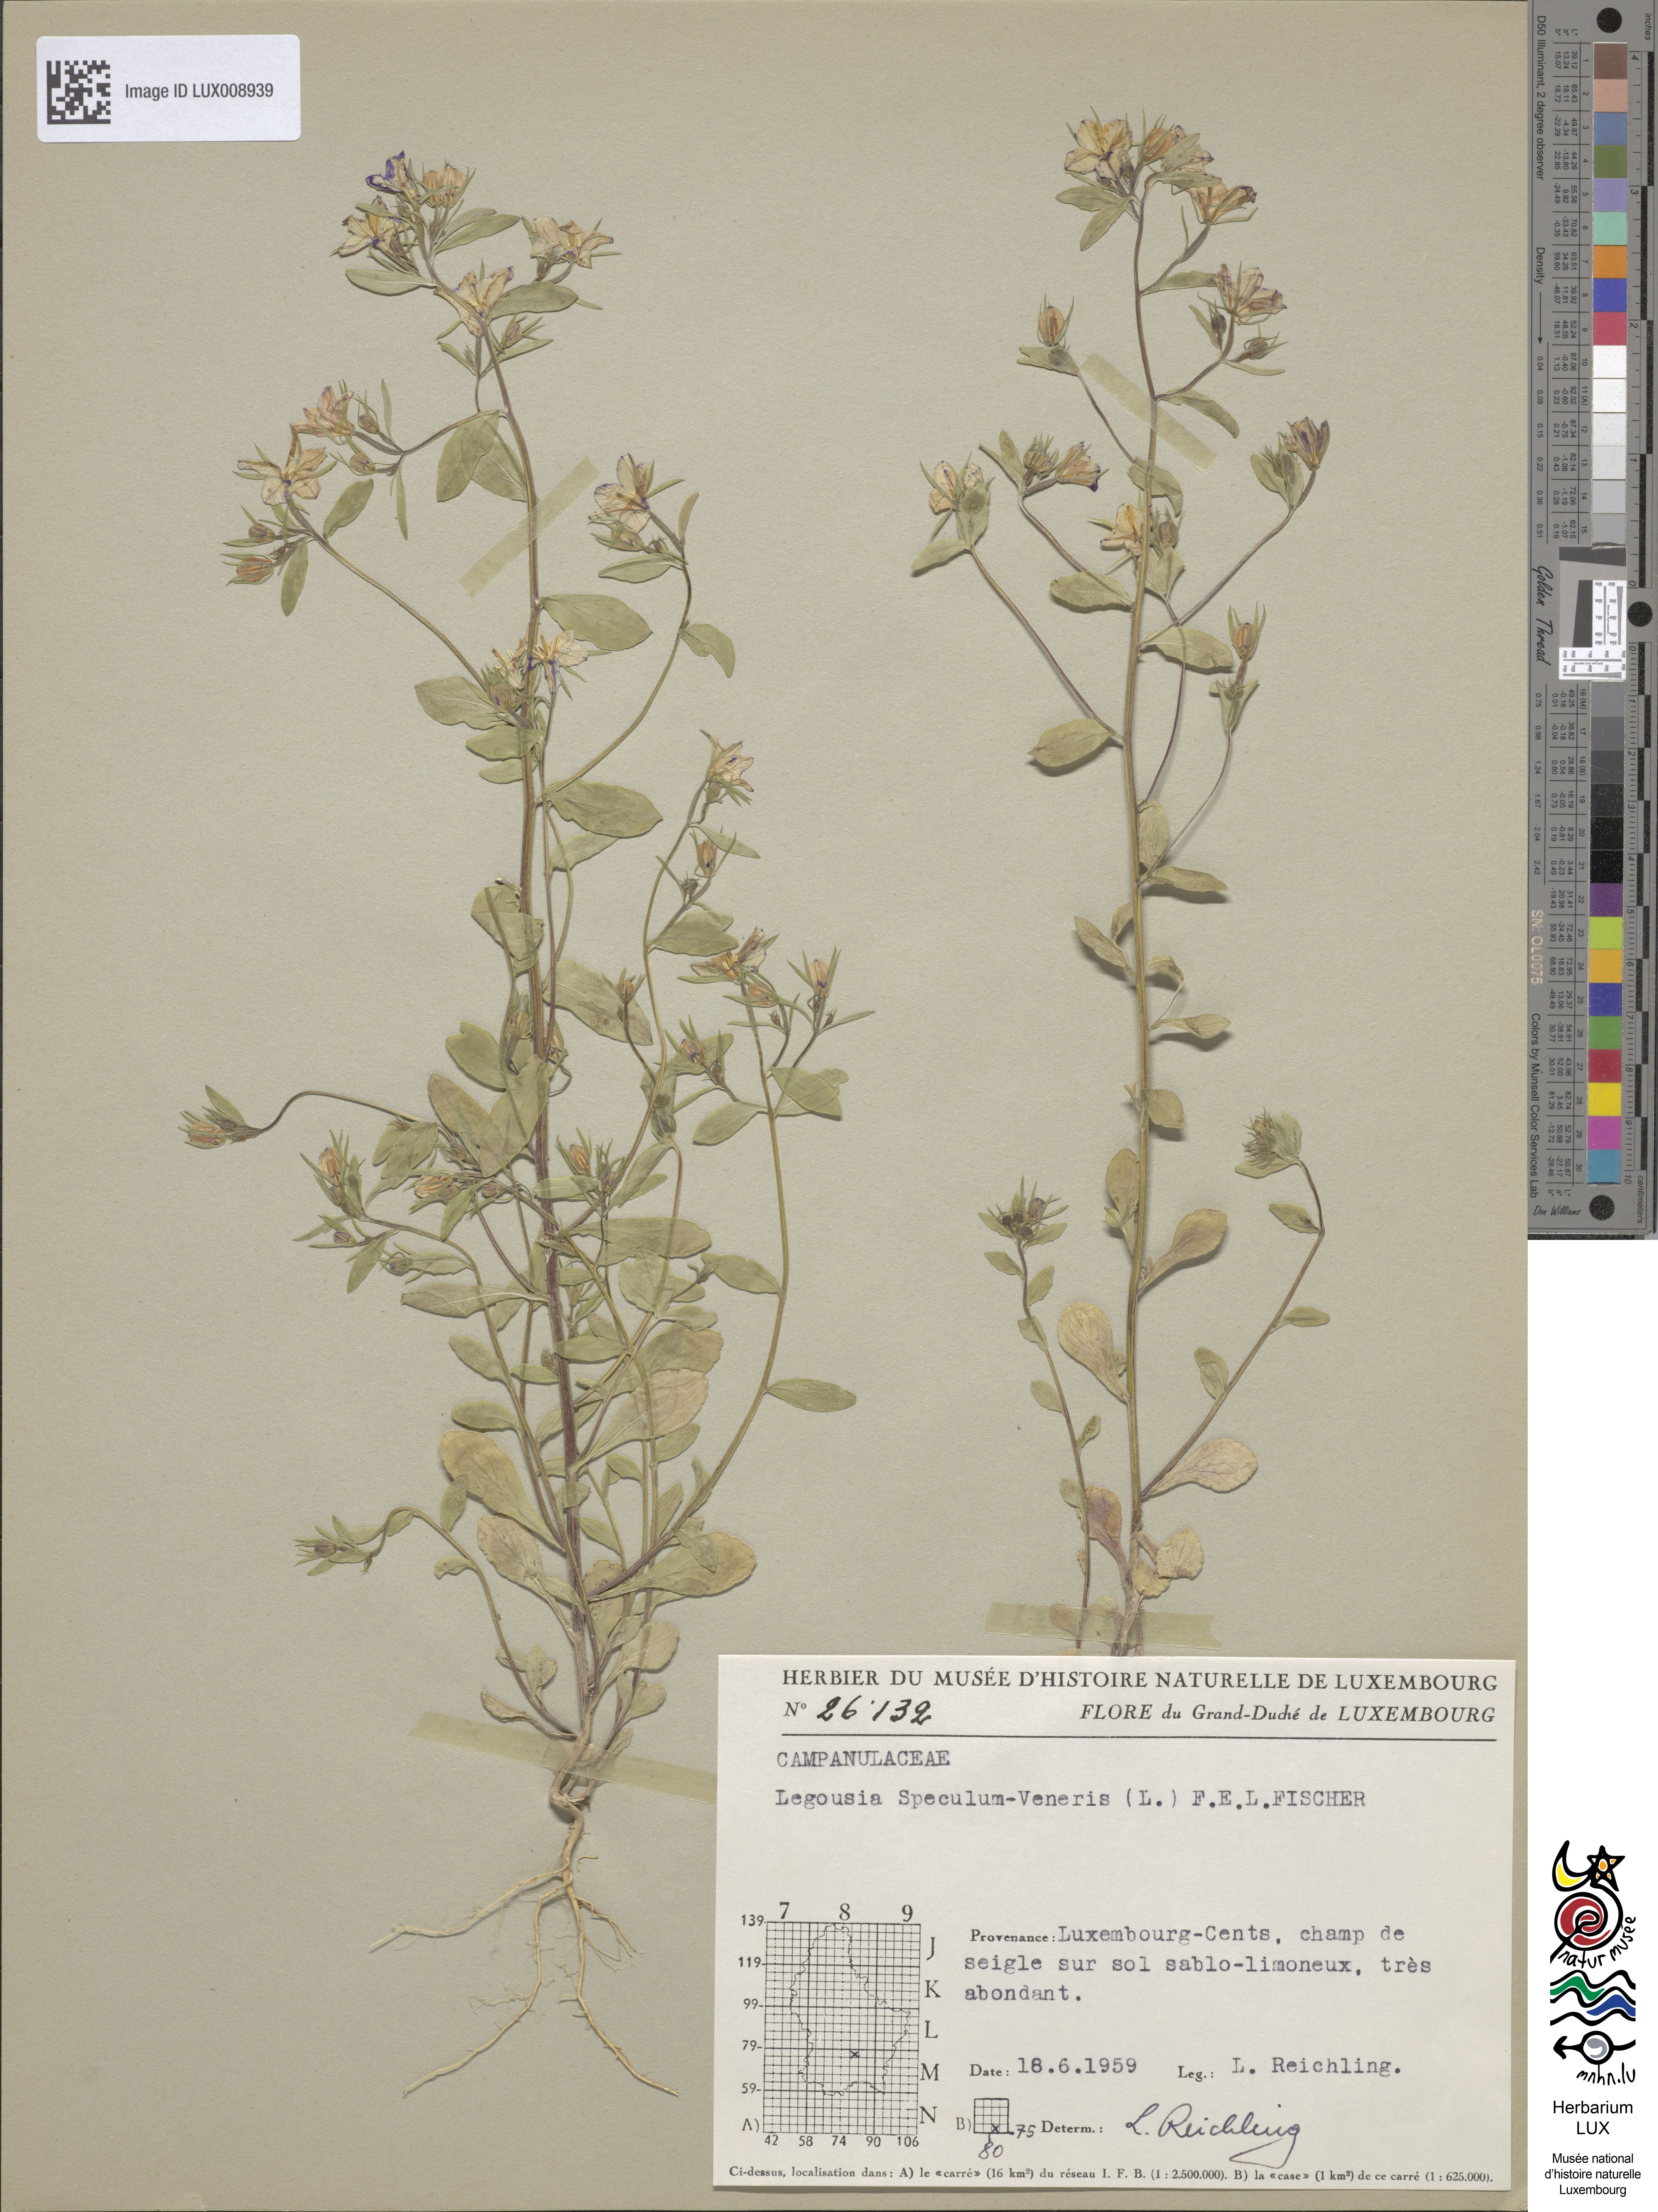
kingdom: Plantae
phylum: Tracheophyta
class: Magnoliopsida
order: Asterales
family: Campanulaceae
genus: Legousia
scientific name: Legousia speculum-veneris
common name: Large venus's-looking-glass
